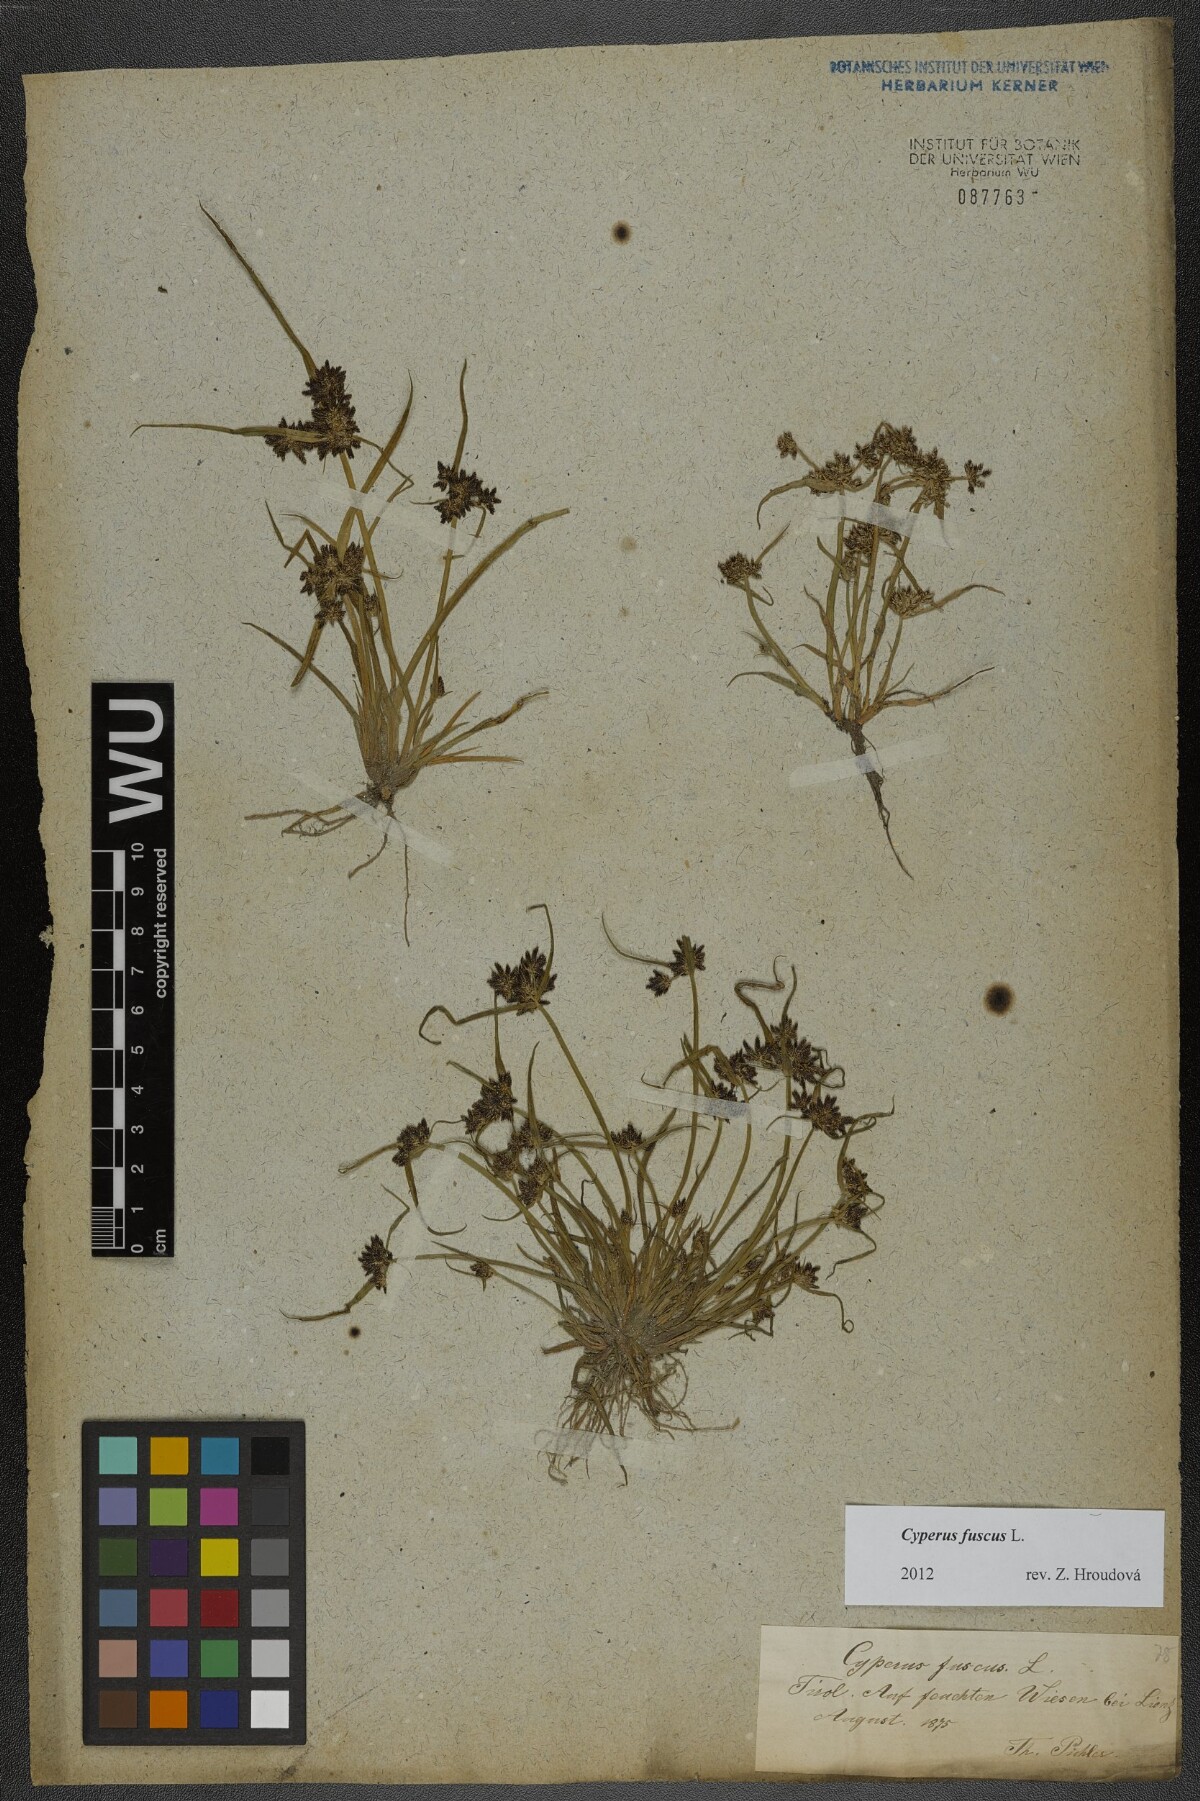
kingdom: Plantae
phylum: Tracheophyta
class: Liliopsida
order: Poales
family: Cyperaceae
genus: Cyperus
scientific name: Cyperus fuscus
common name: Brown galingale
